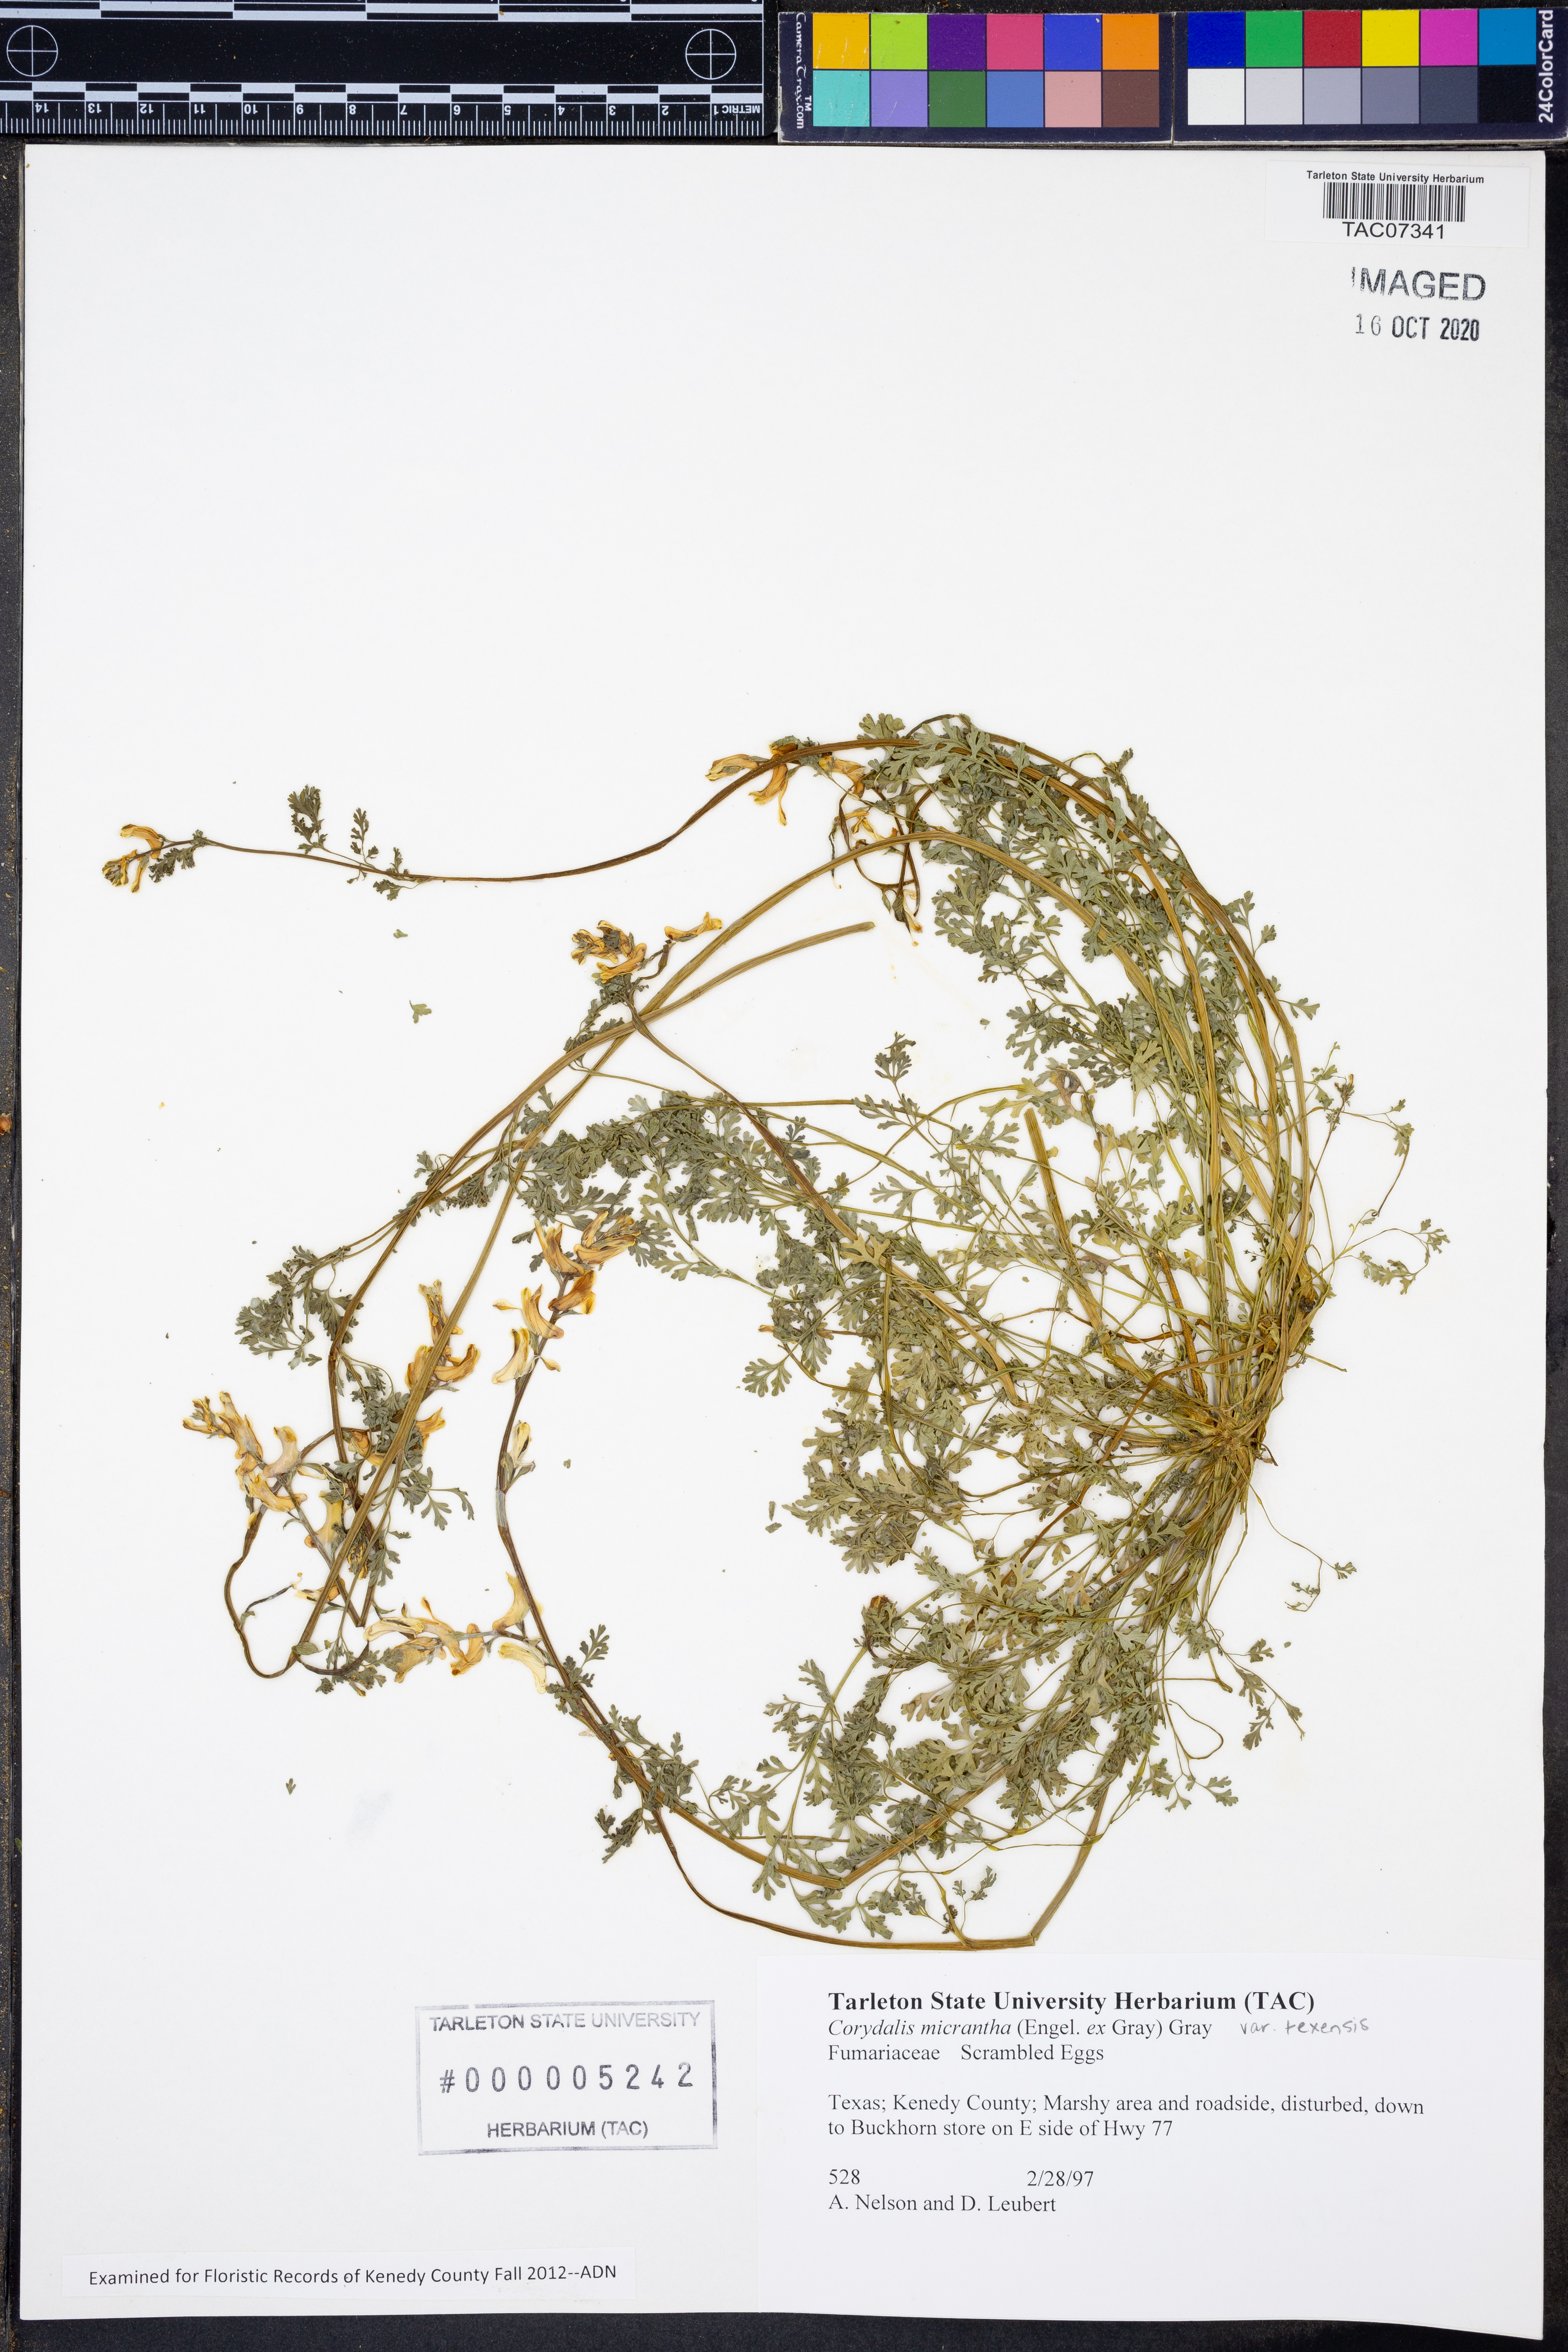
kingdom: Plantae
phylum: Tracheophyta
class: Magnoliopsida
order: Ranunculales
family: Papaveraceae
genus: Corydalis
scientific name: Corydalis micrantha
